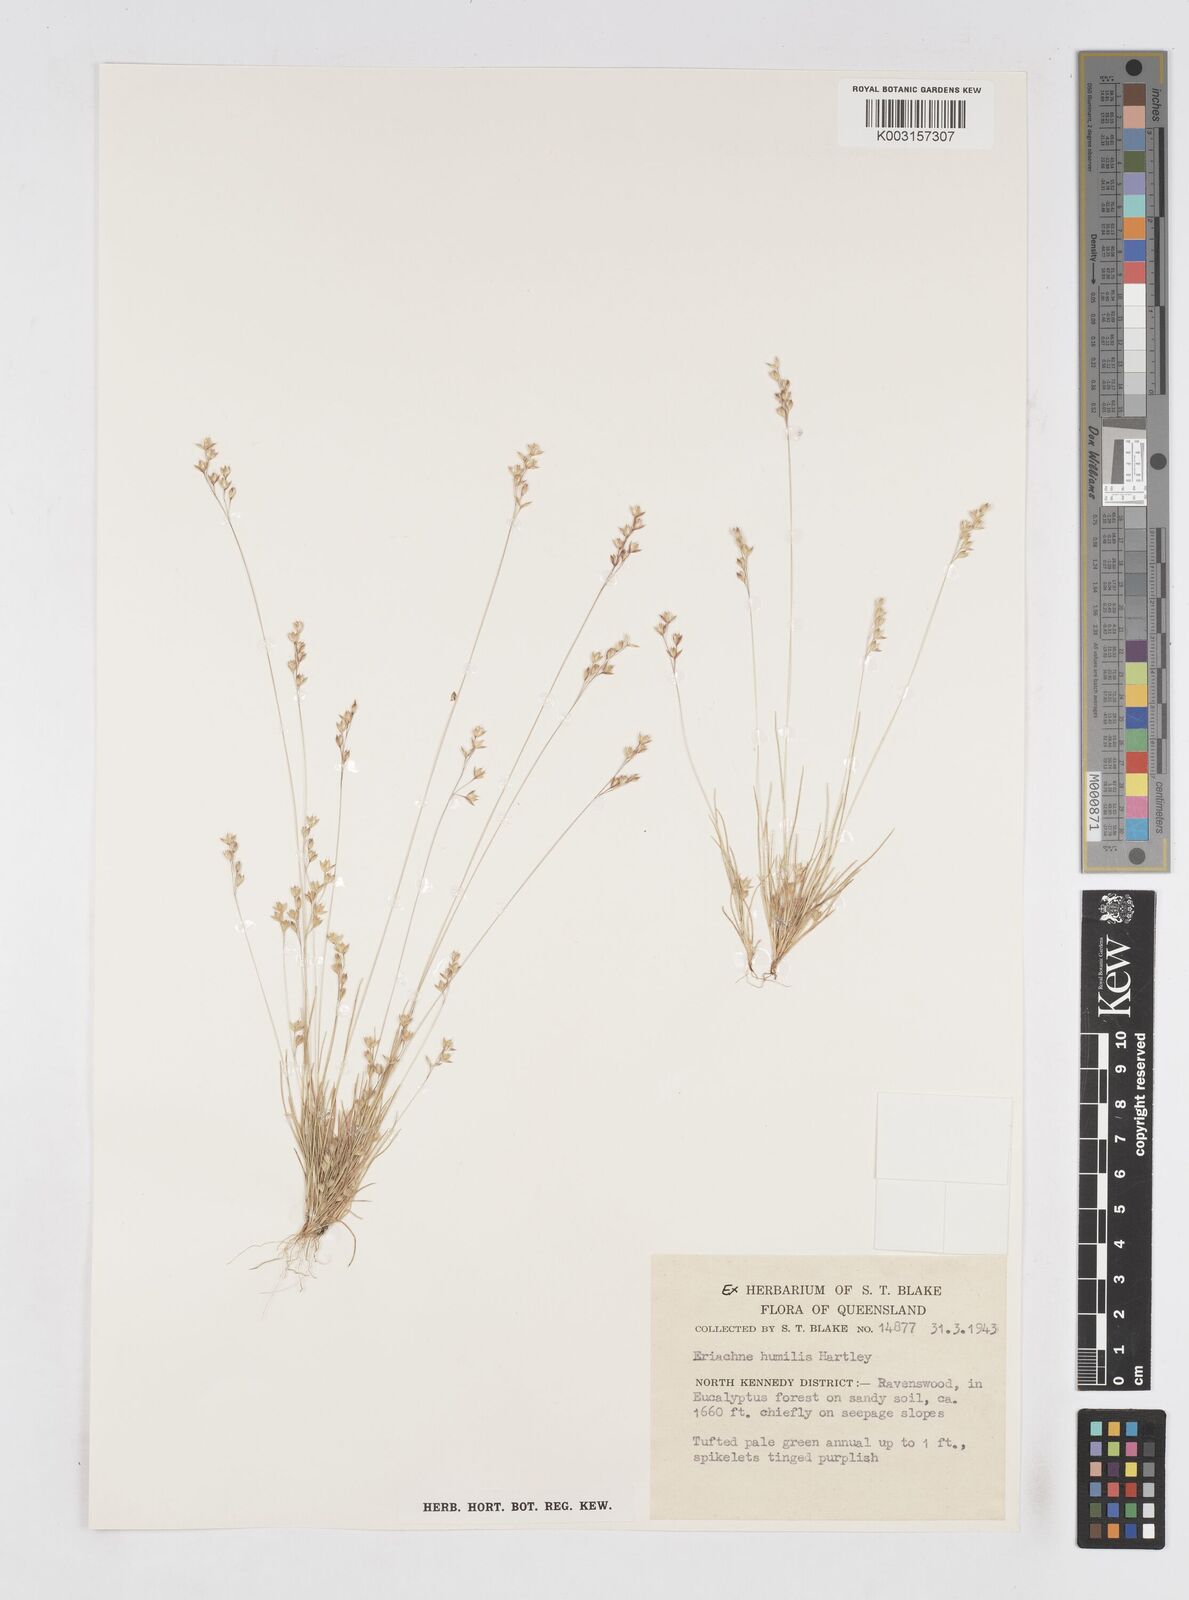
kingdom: Plantae
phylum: Tracheophyta
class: Liliopsida
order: Poales
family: Poaceae
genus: Eriachne
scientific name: Eriachne humilis
